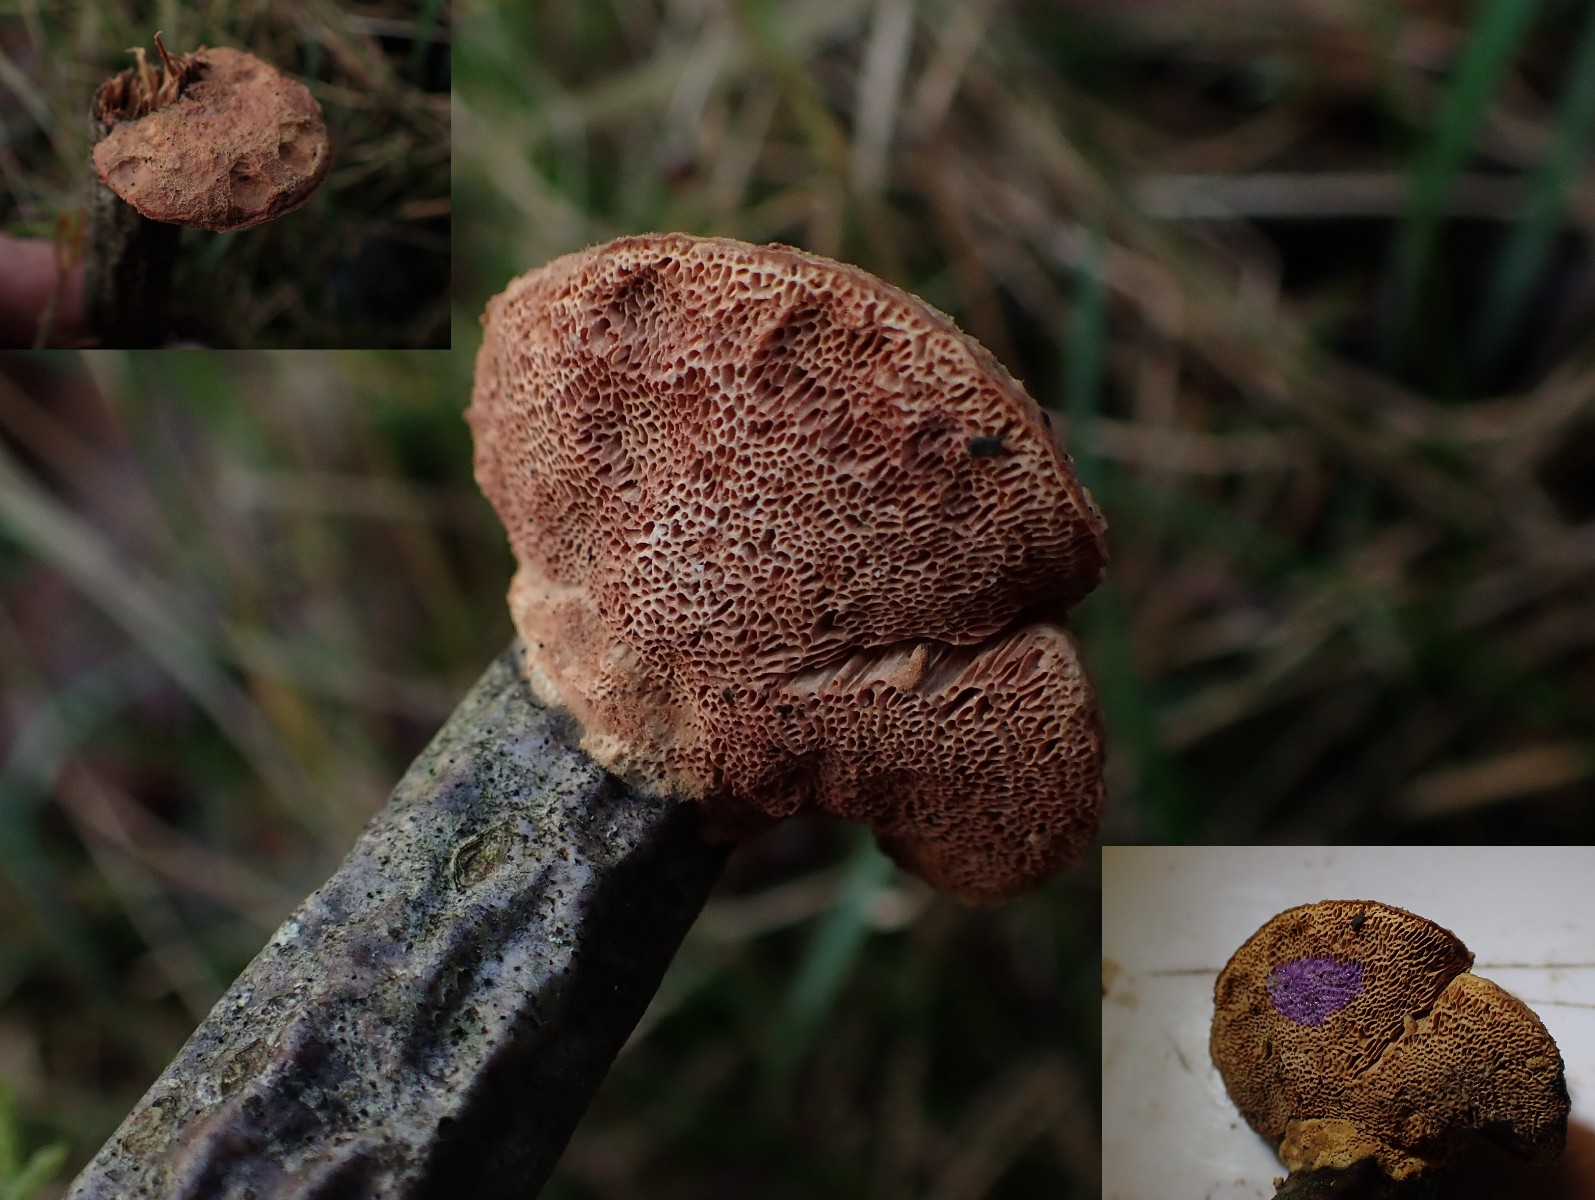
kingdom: Fungi
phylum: Basidiomycota
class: Agaricomycetes
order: Polyporales
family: Phanerochaetaceae
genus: Hapalopilus
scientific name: Hapalopilus rutilans
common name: rødlig okkerporesvamp
